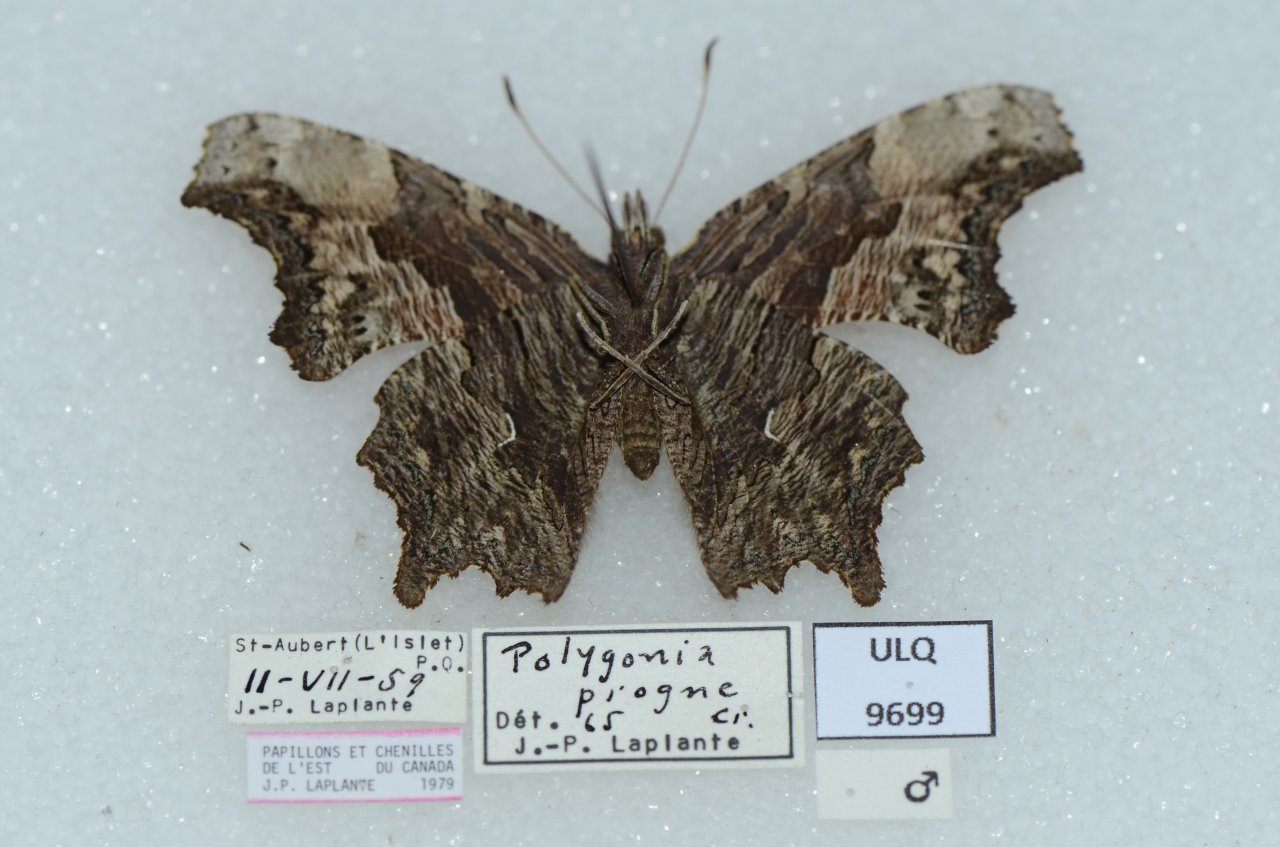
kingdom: Animalia
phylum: Arthropoda
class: Insecta
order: Lepidoptera
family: Nymphalidae
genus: Polygonia
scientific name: Polygonia progne
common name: Gray Comma
